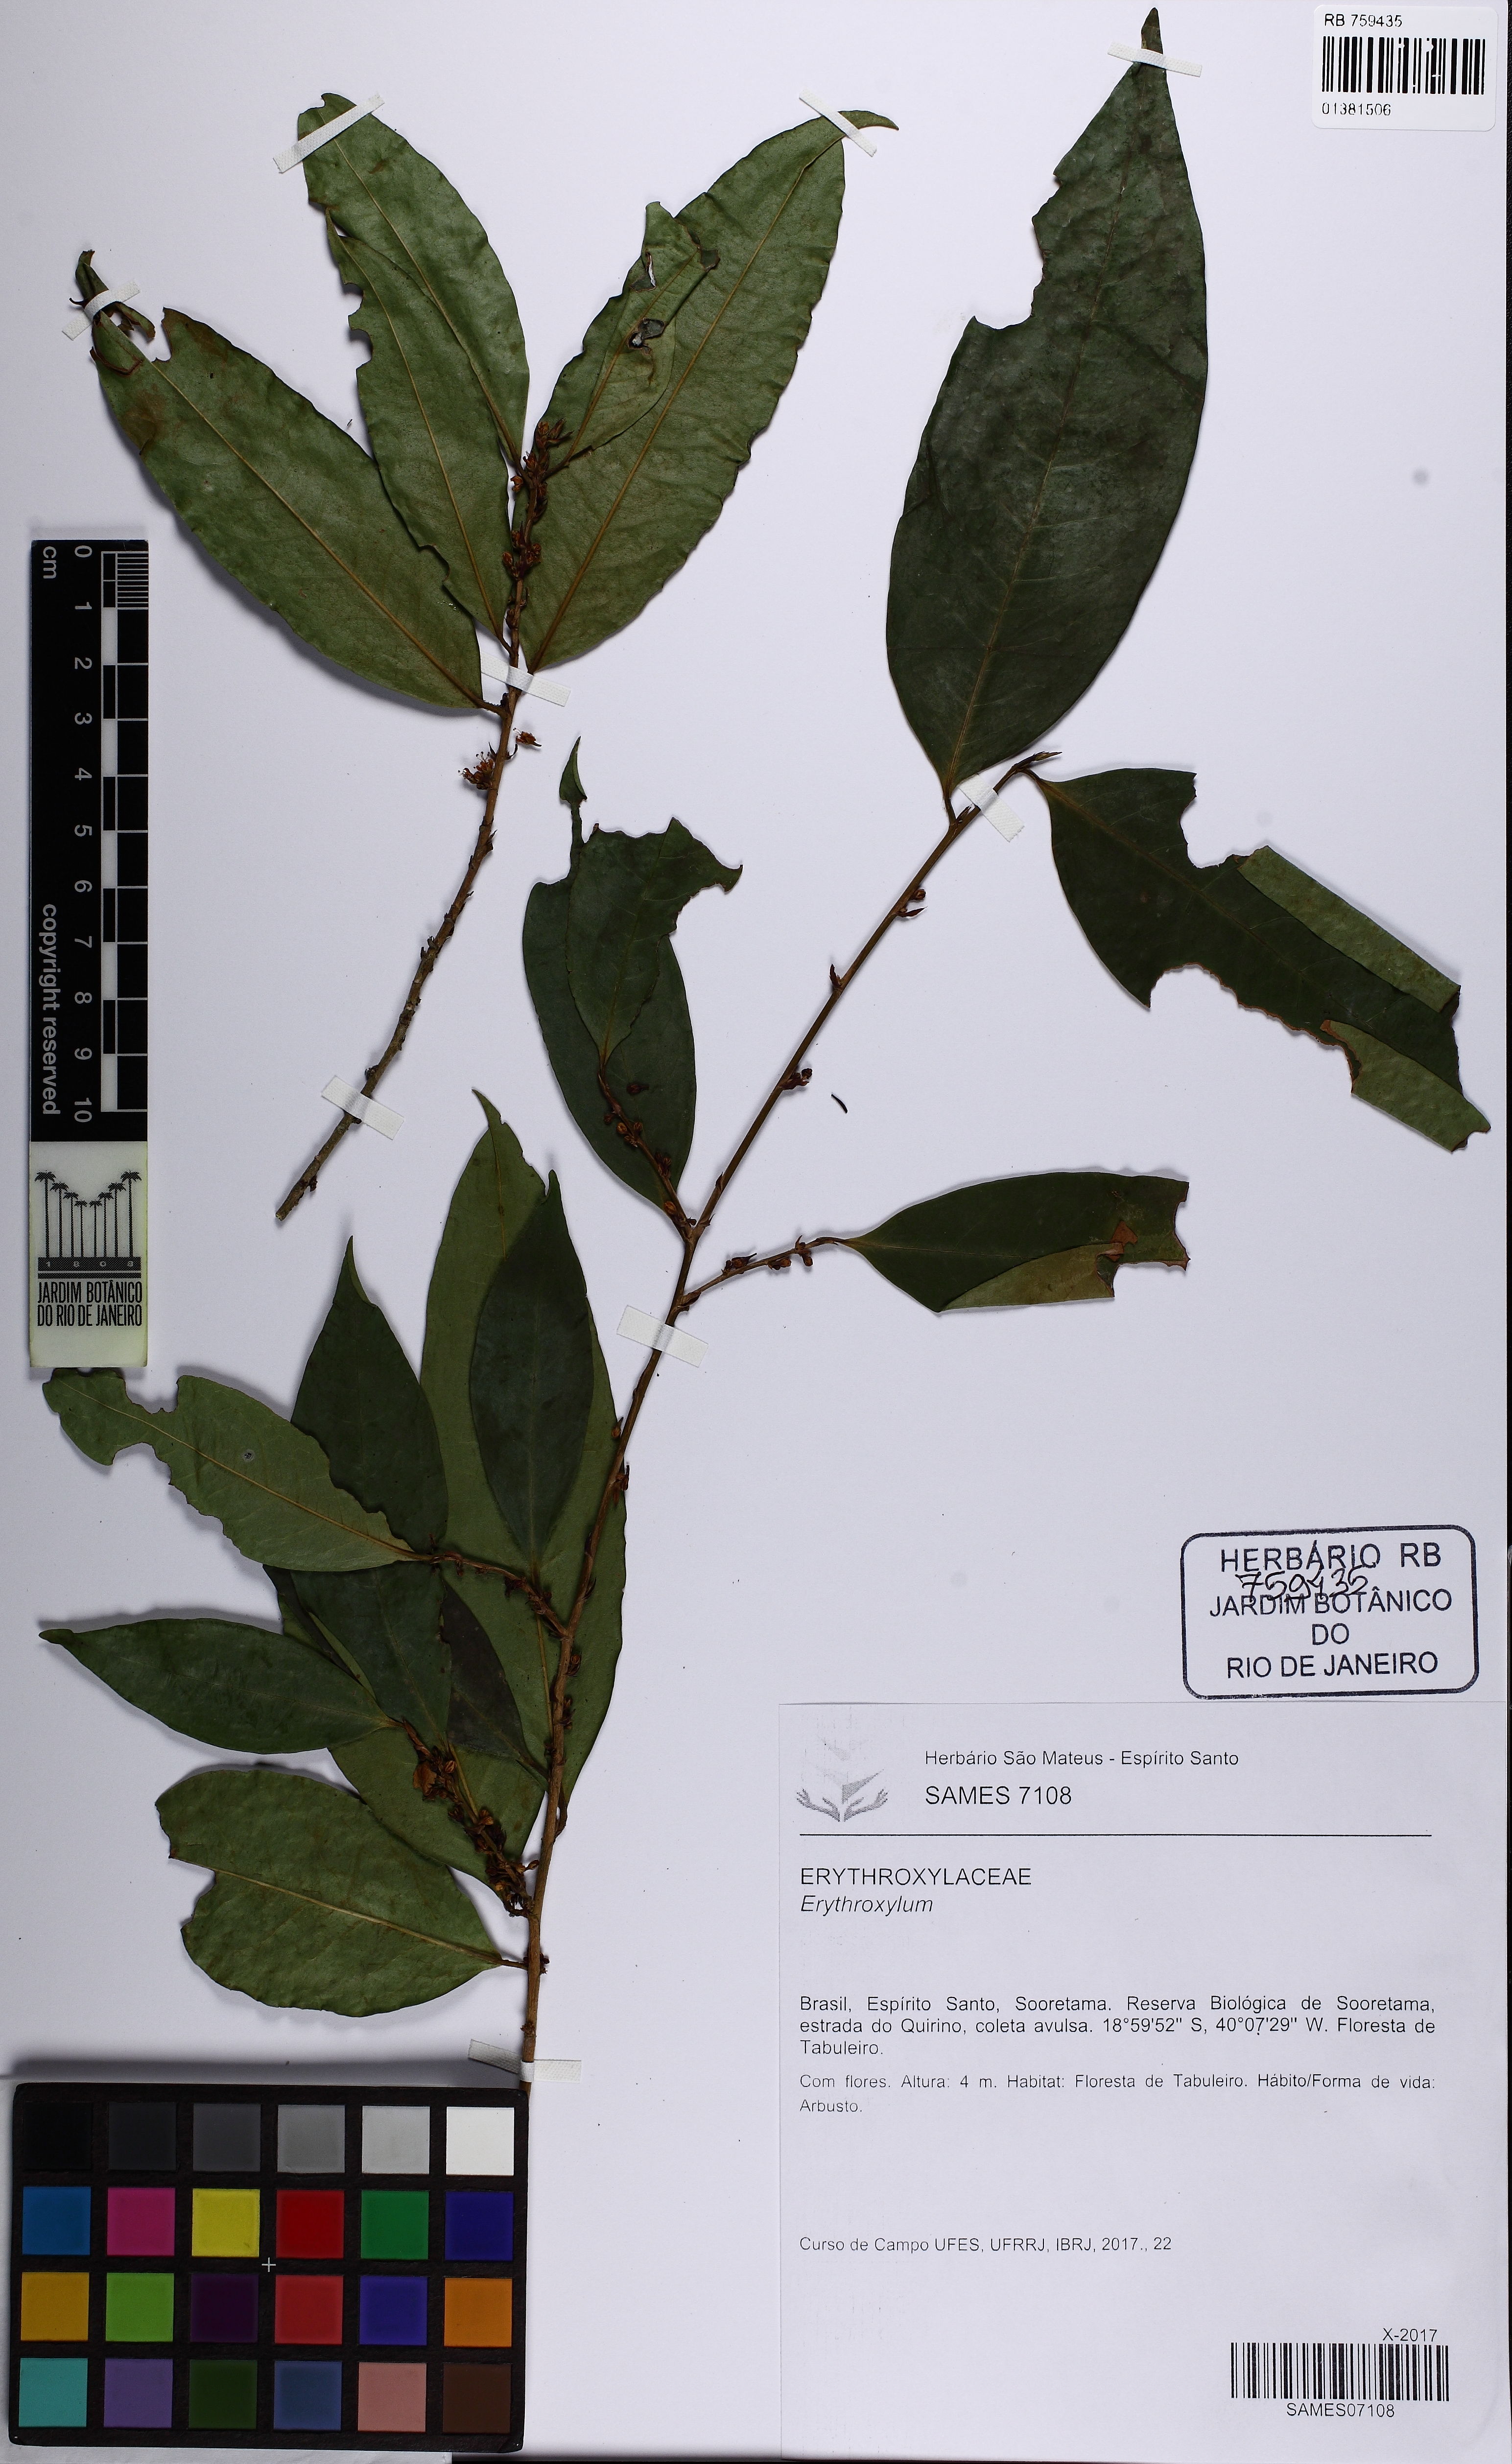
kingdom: Plantae
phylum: Tracheophyta
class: Magnoliopsida
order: Malpighiales
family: Erythroxylaceae
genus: Erythroxylum
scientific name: Erythroxylum
